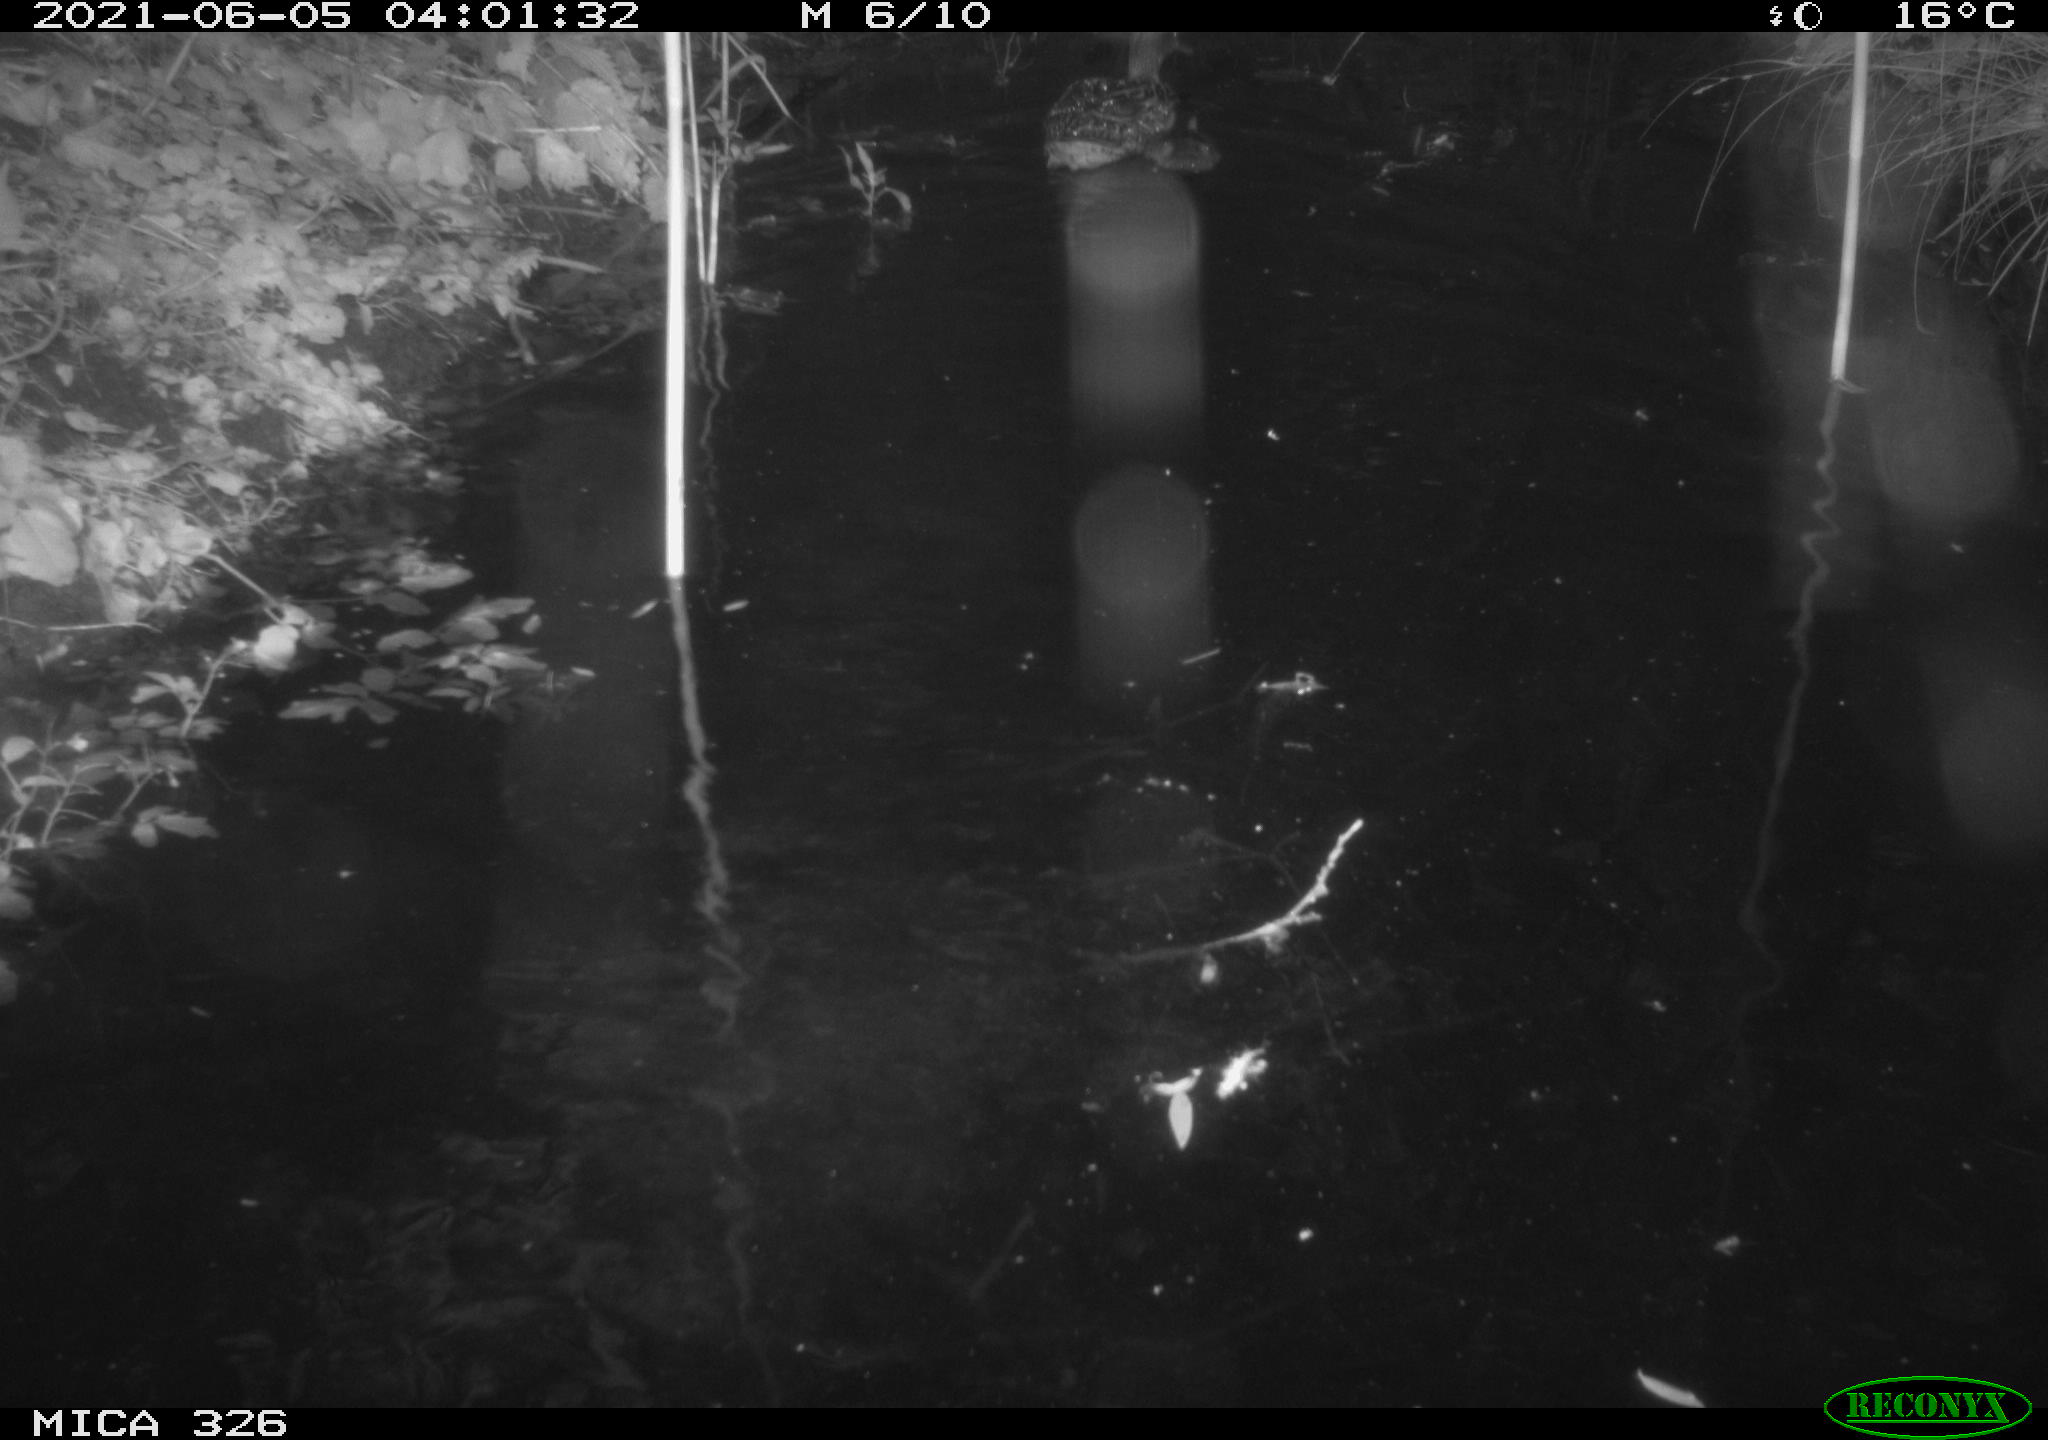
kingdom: Animalia
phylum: Chordata
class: Aves
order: Anseriformes
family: Anatidae
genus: Anas
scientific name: Anas platyrhynchos
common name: Mallard
